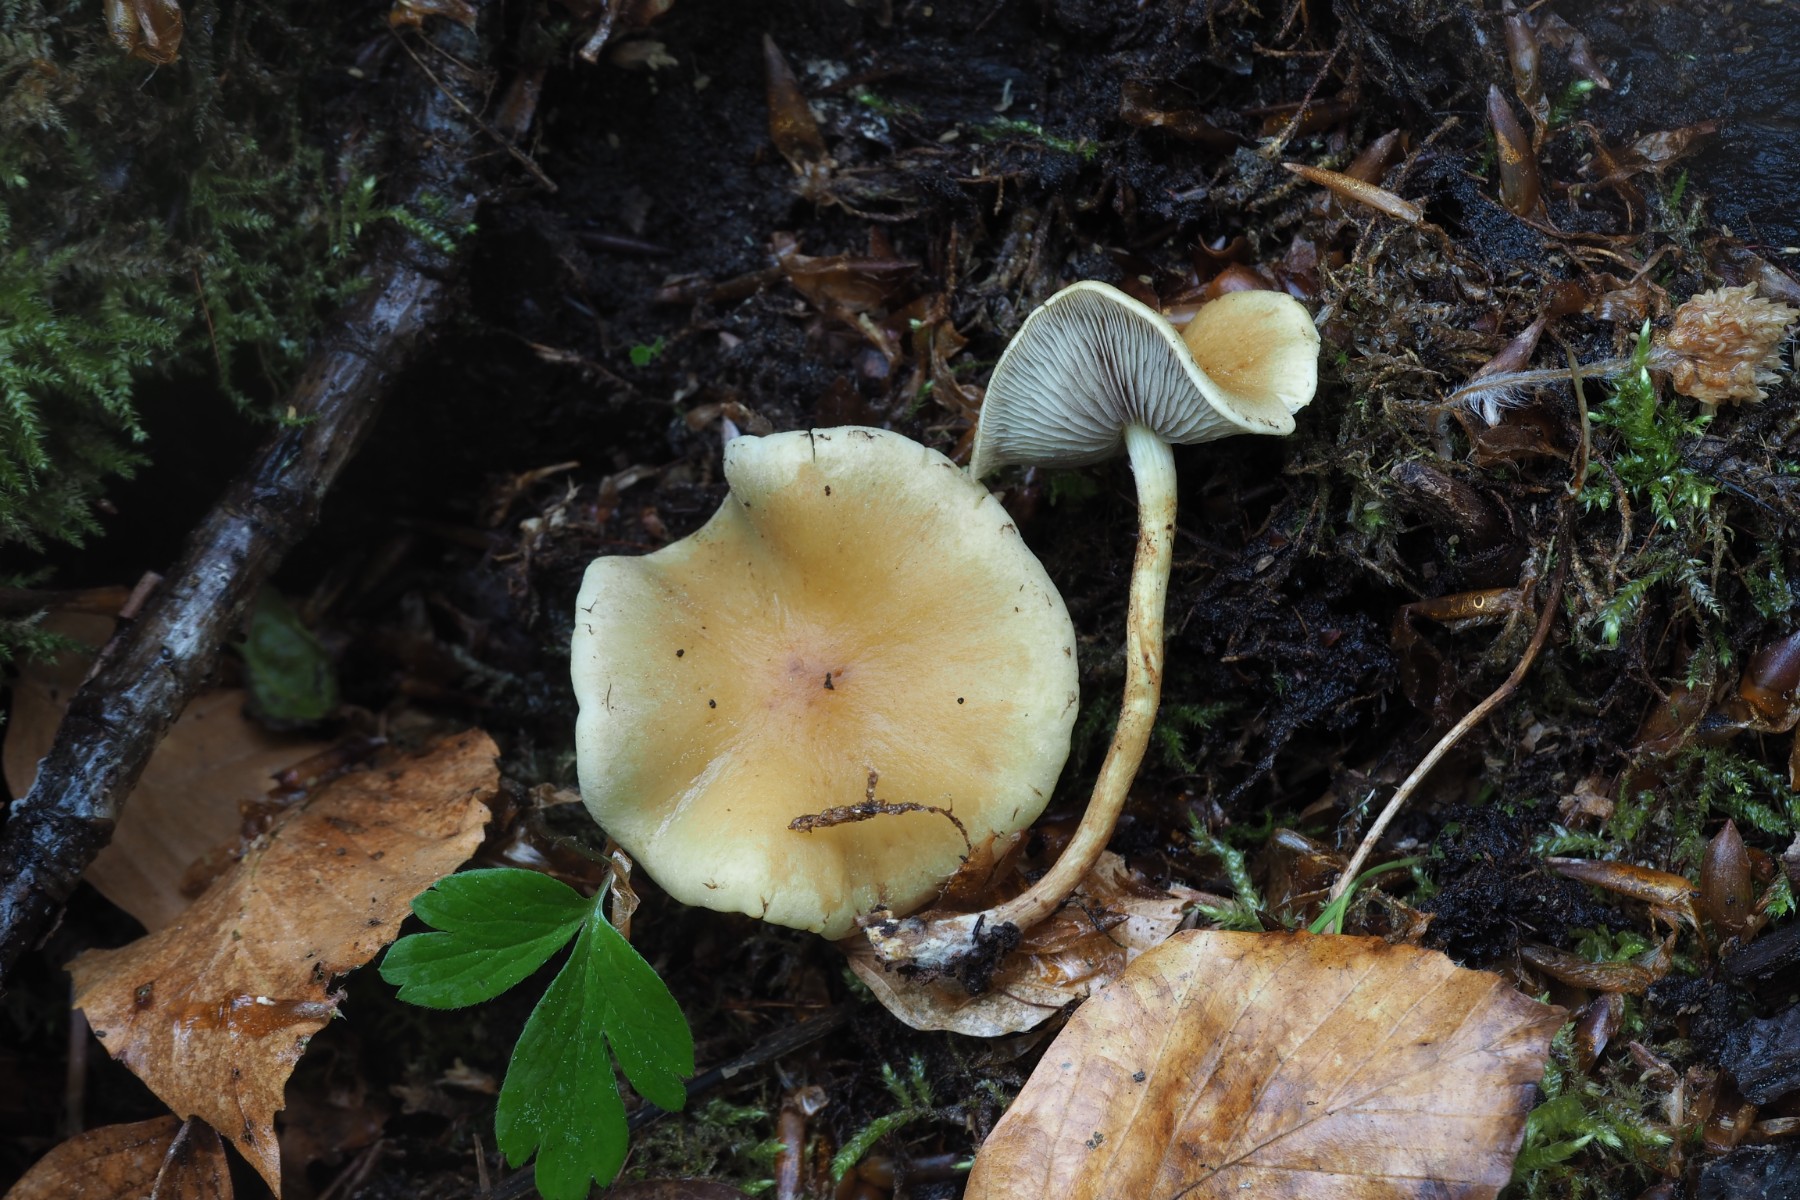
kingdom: Fungi
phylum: Basidiomycota
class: Agaricomycetes
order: Agaricales
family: Strophariaceae
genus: Hypholoma
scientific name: Hypholoma fasciculare
